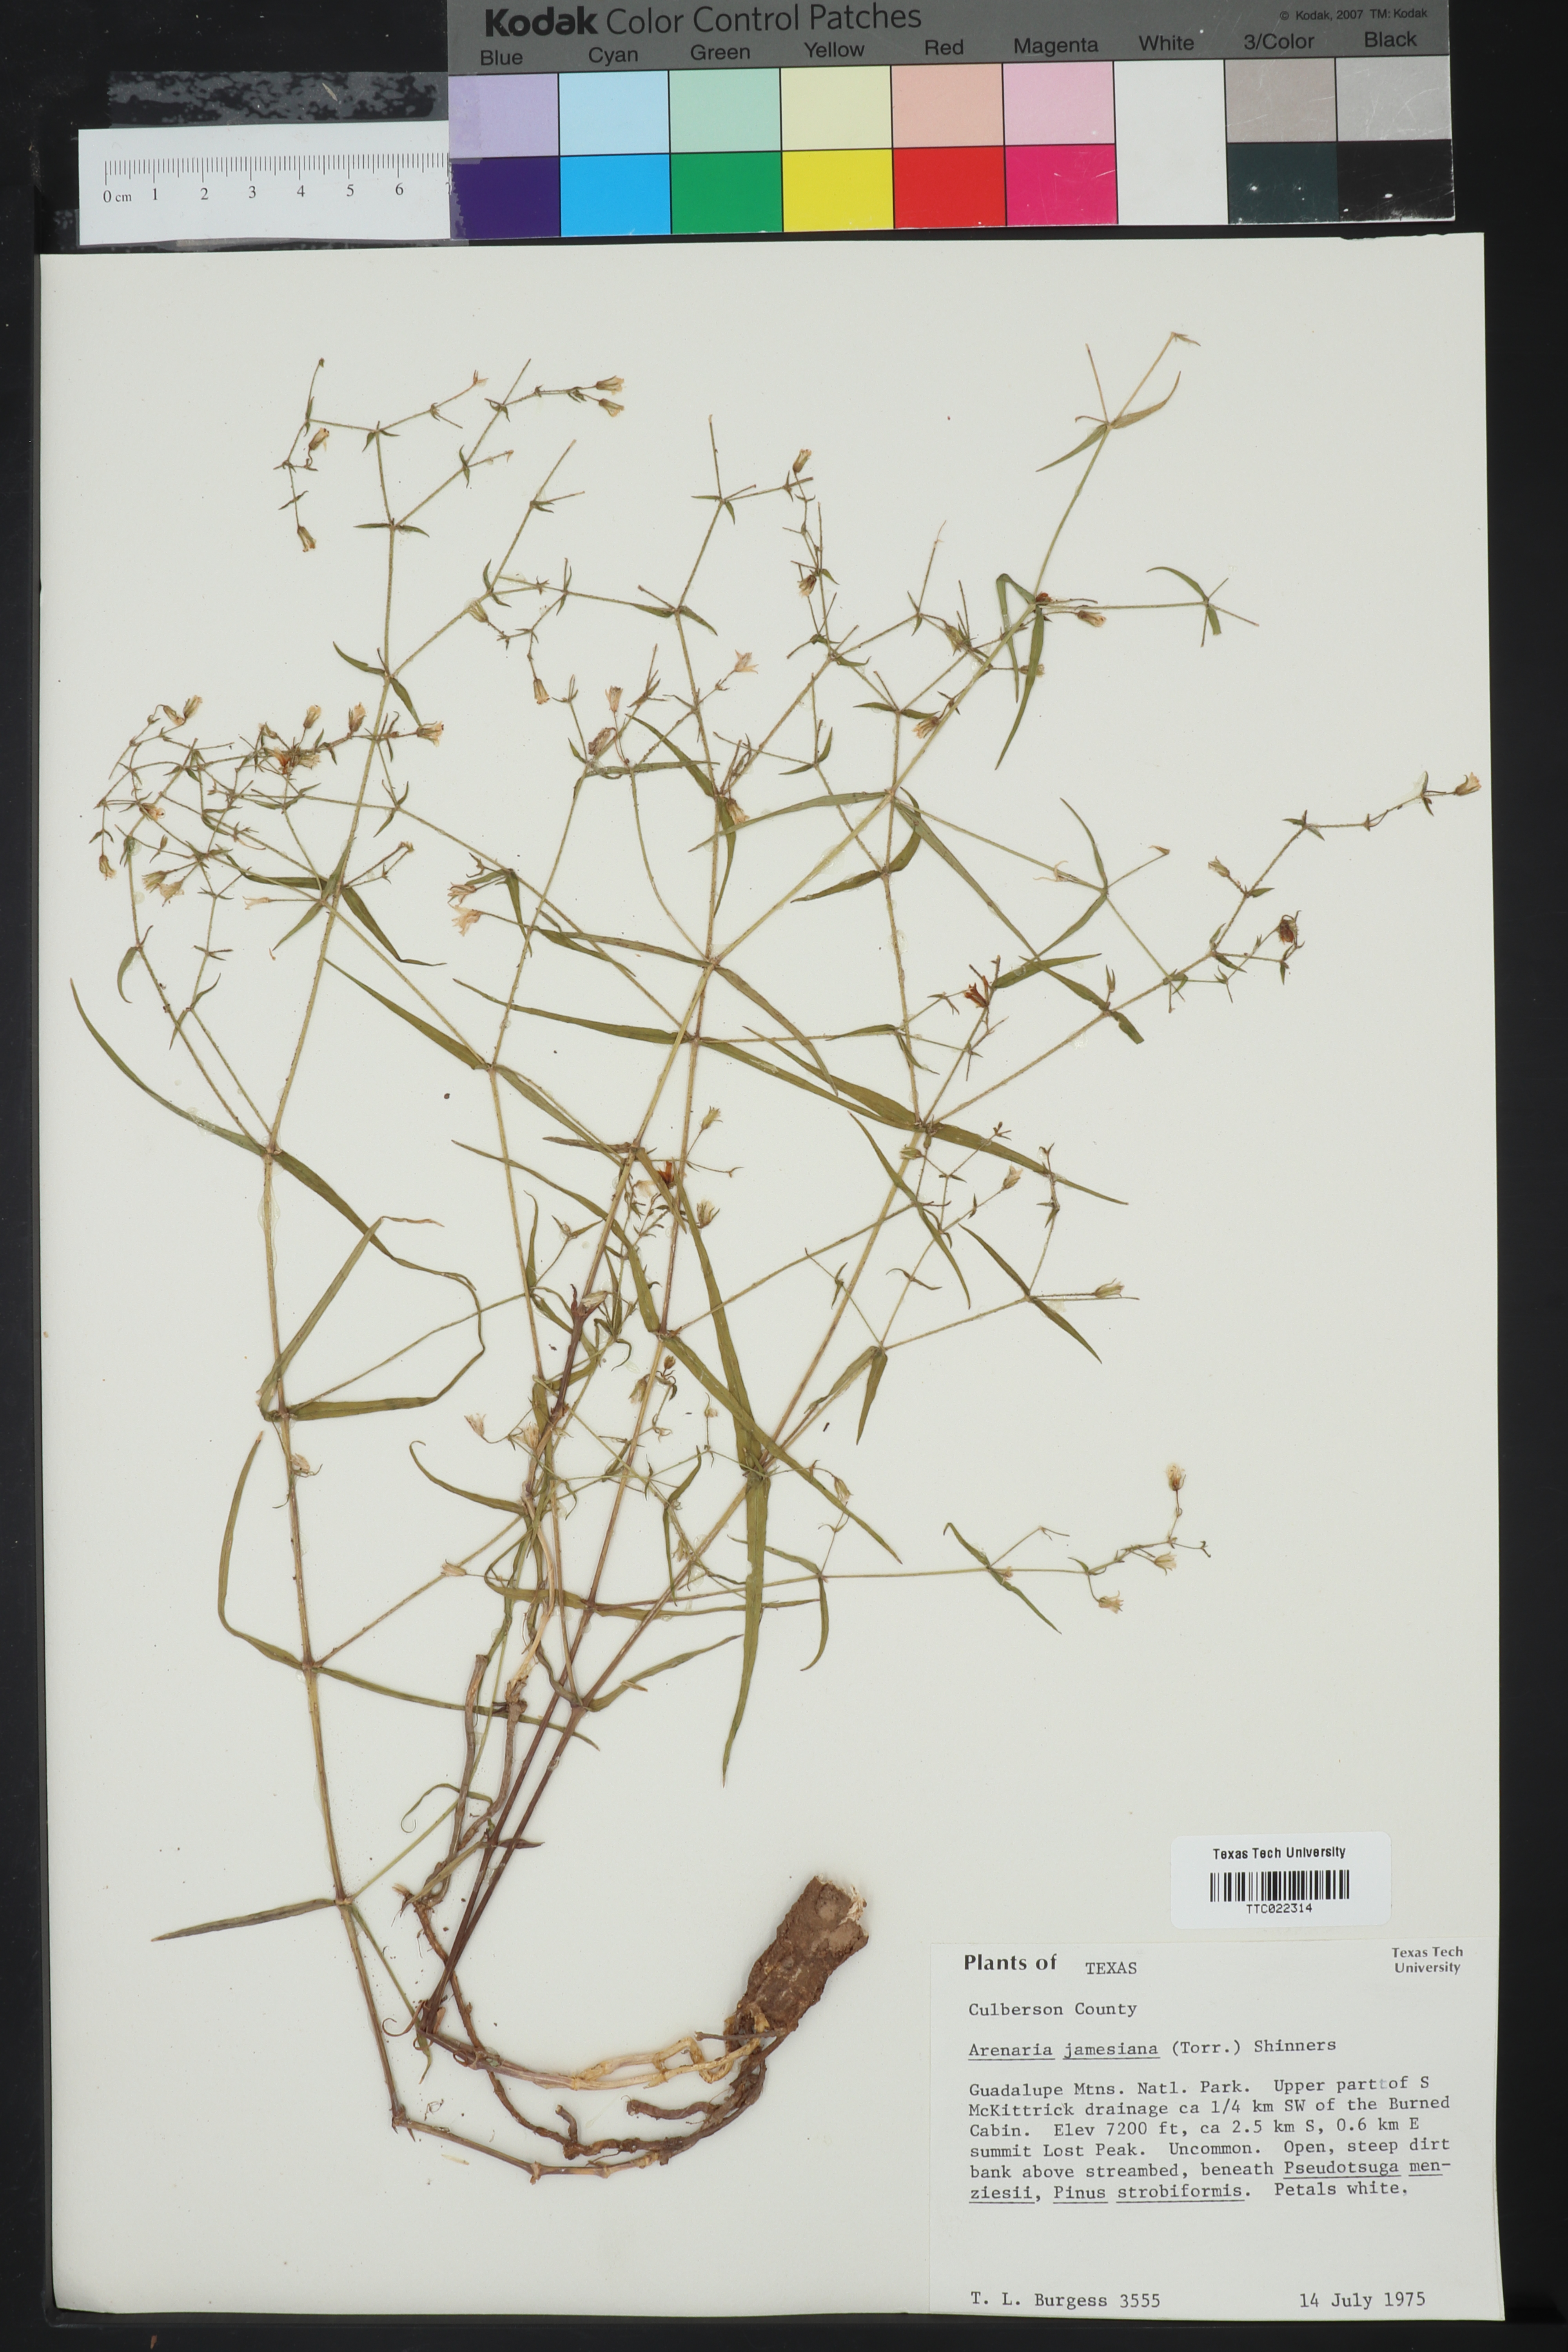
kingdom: Plantae
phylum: Tracheophyta
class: Magnoliopsida
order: Caryophyllales
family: Caryophyllaceae
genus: Schizotechium
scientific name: Schizotechium jamesianum
